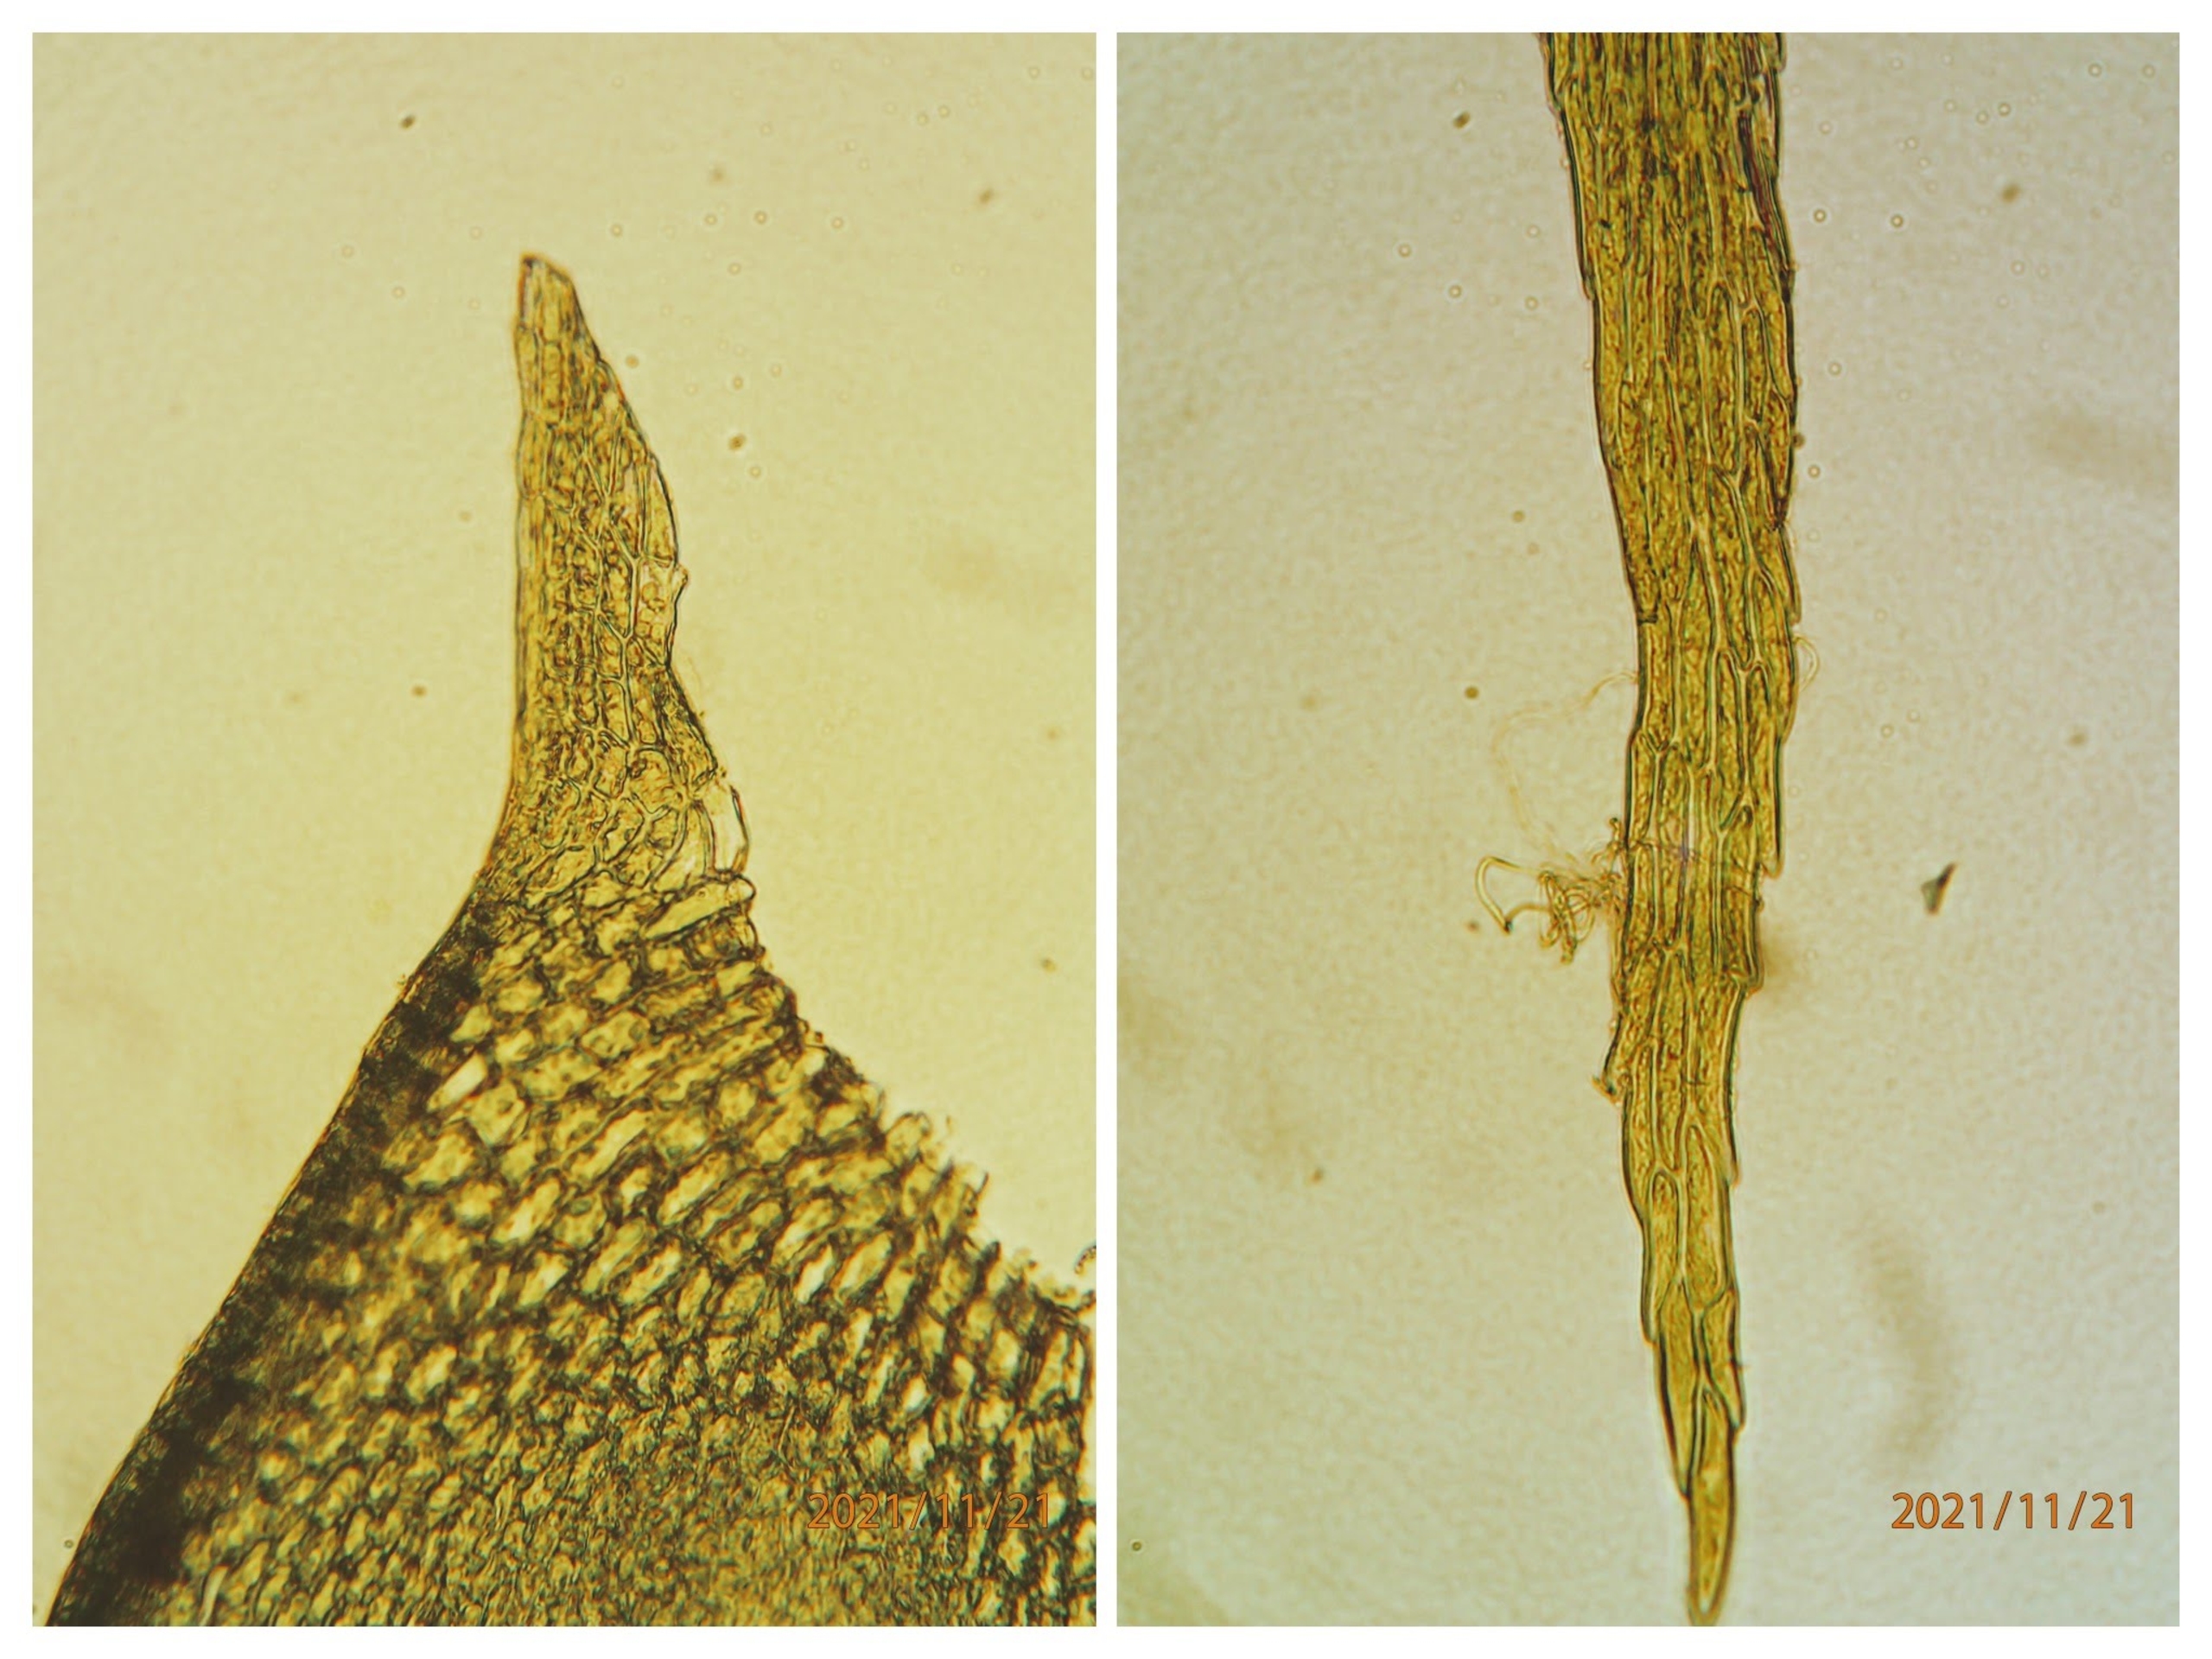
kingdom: Plantae
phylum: Bryophyta
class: Bryopsida
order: Hypnales
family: Brachytheciaceae
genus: Sciuro-hypnum
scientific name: Sciuro-hypnum reflexum
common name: Elle-kortkapsel
